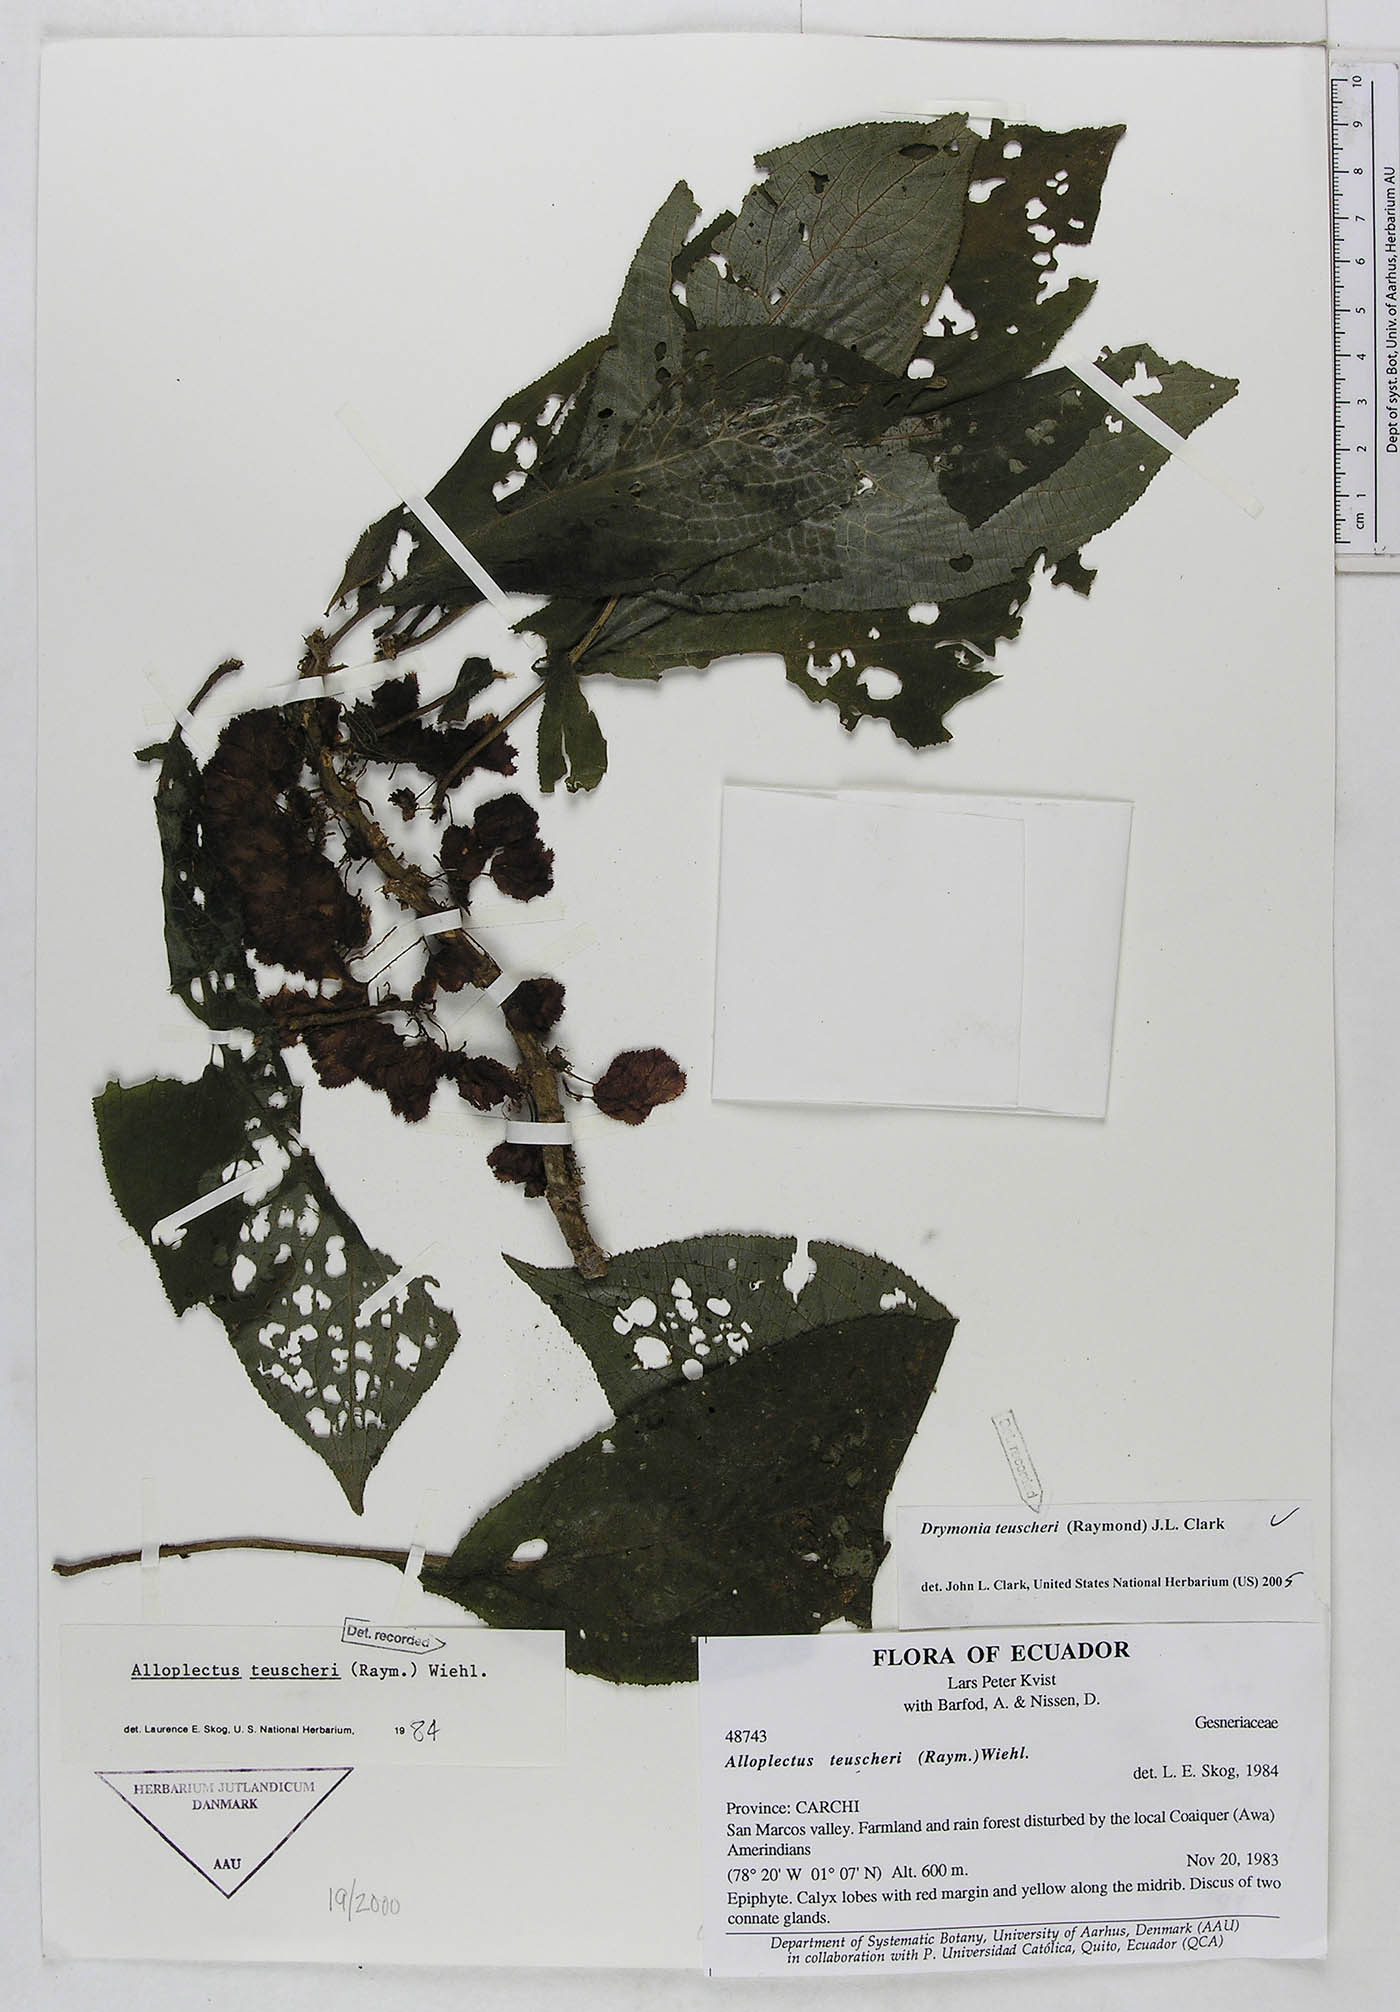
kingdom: Plantae
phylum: Tracheophyta
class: Magnoliopsida
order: Lamiales
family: Gesneriaceae
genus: Drymonia
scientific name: Drymonia teuscheri
